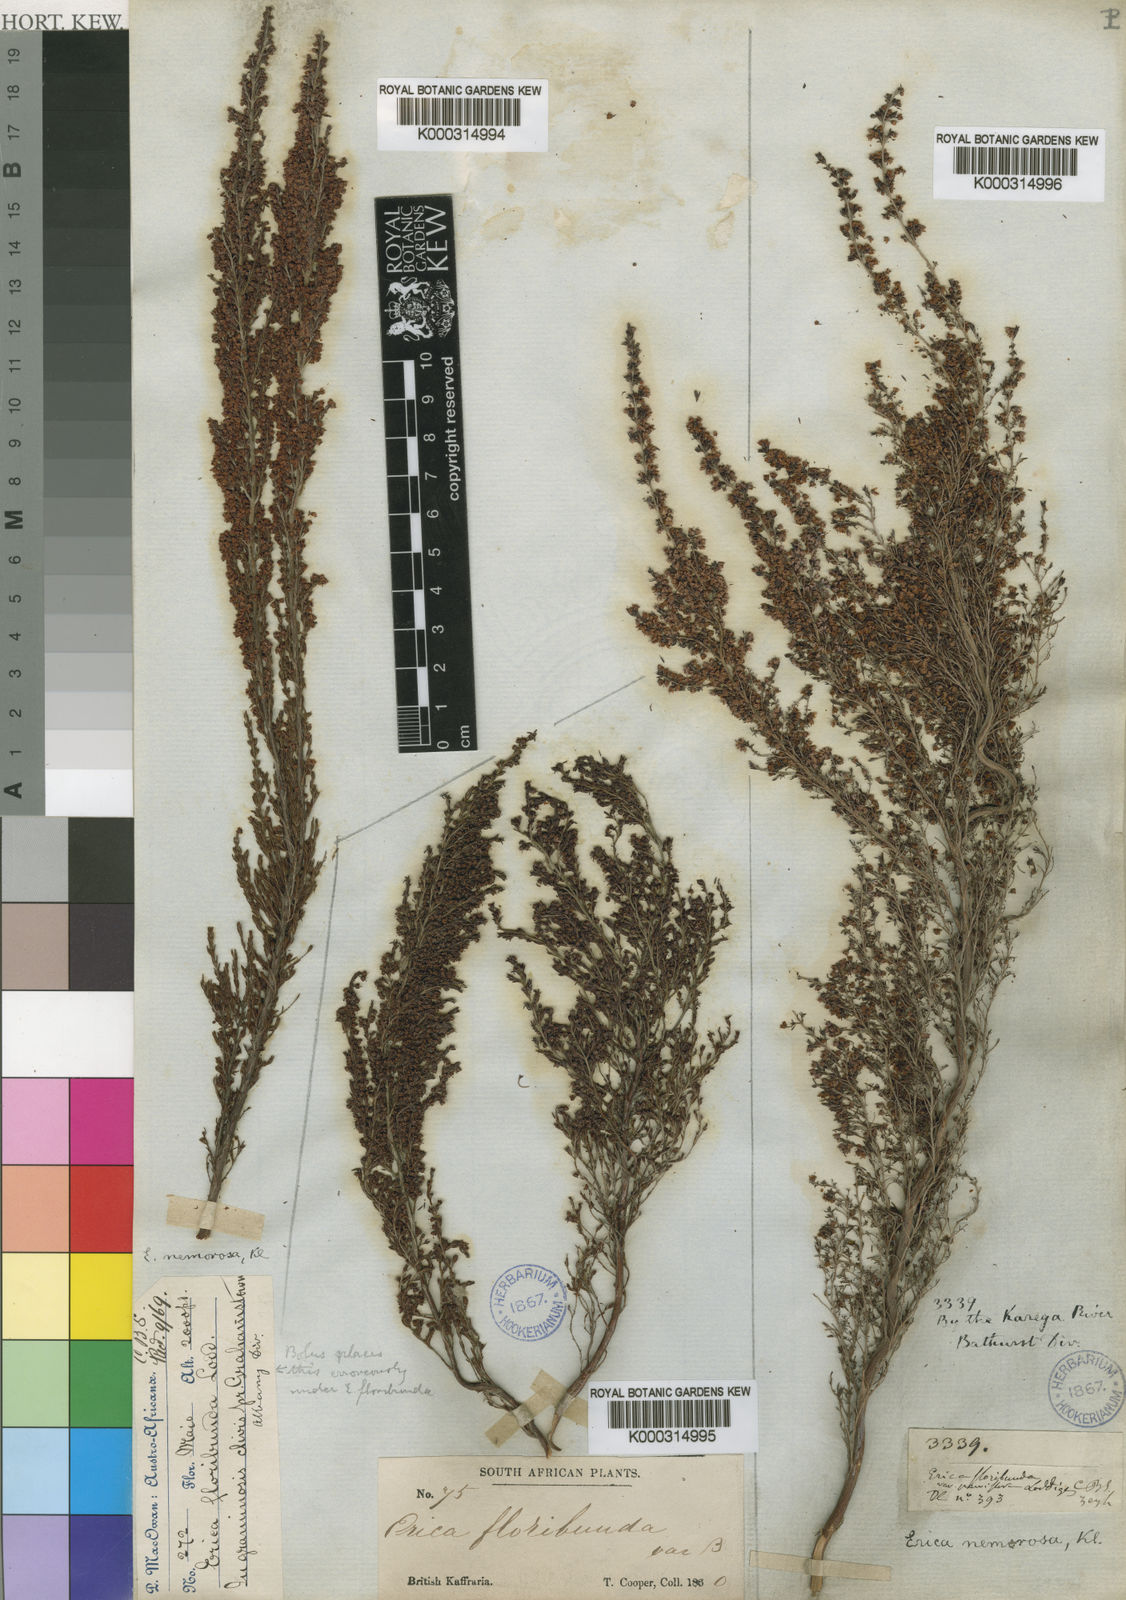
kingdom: Plantae
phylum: Tracheophyta
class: Magnoliopsida
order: Ericales
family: Ericaceae
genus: Erica
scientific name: Erica nemorosa
